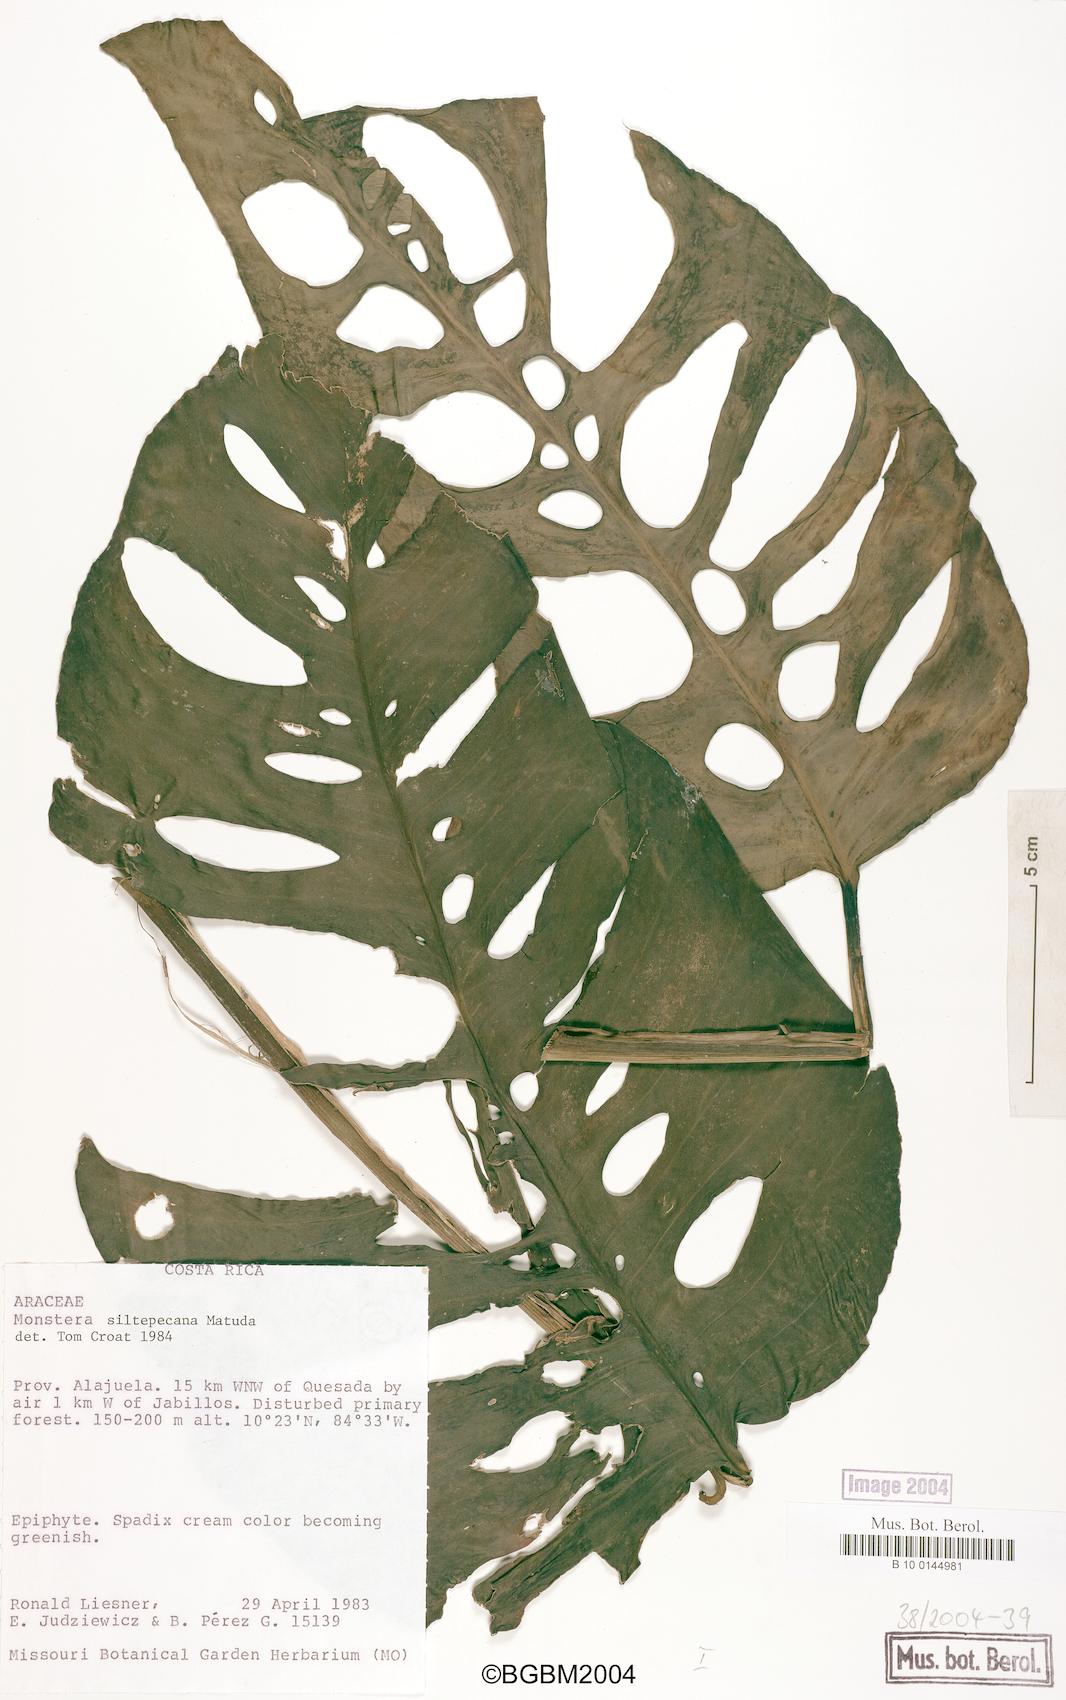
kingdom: Plantae
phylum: Tracheophyta
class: Liliopsida
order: Alismatales
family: Araceae
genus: Monstera
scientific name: Monstera siltepecana
